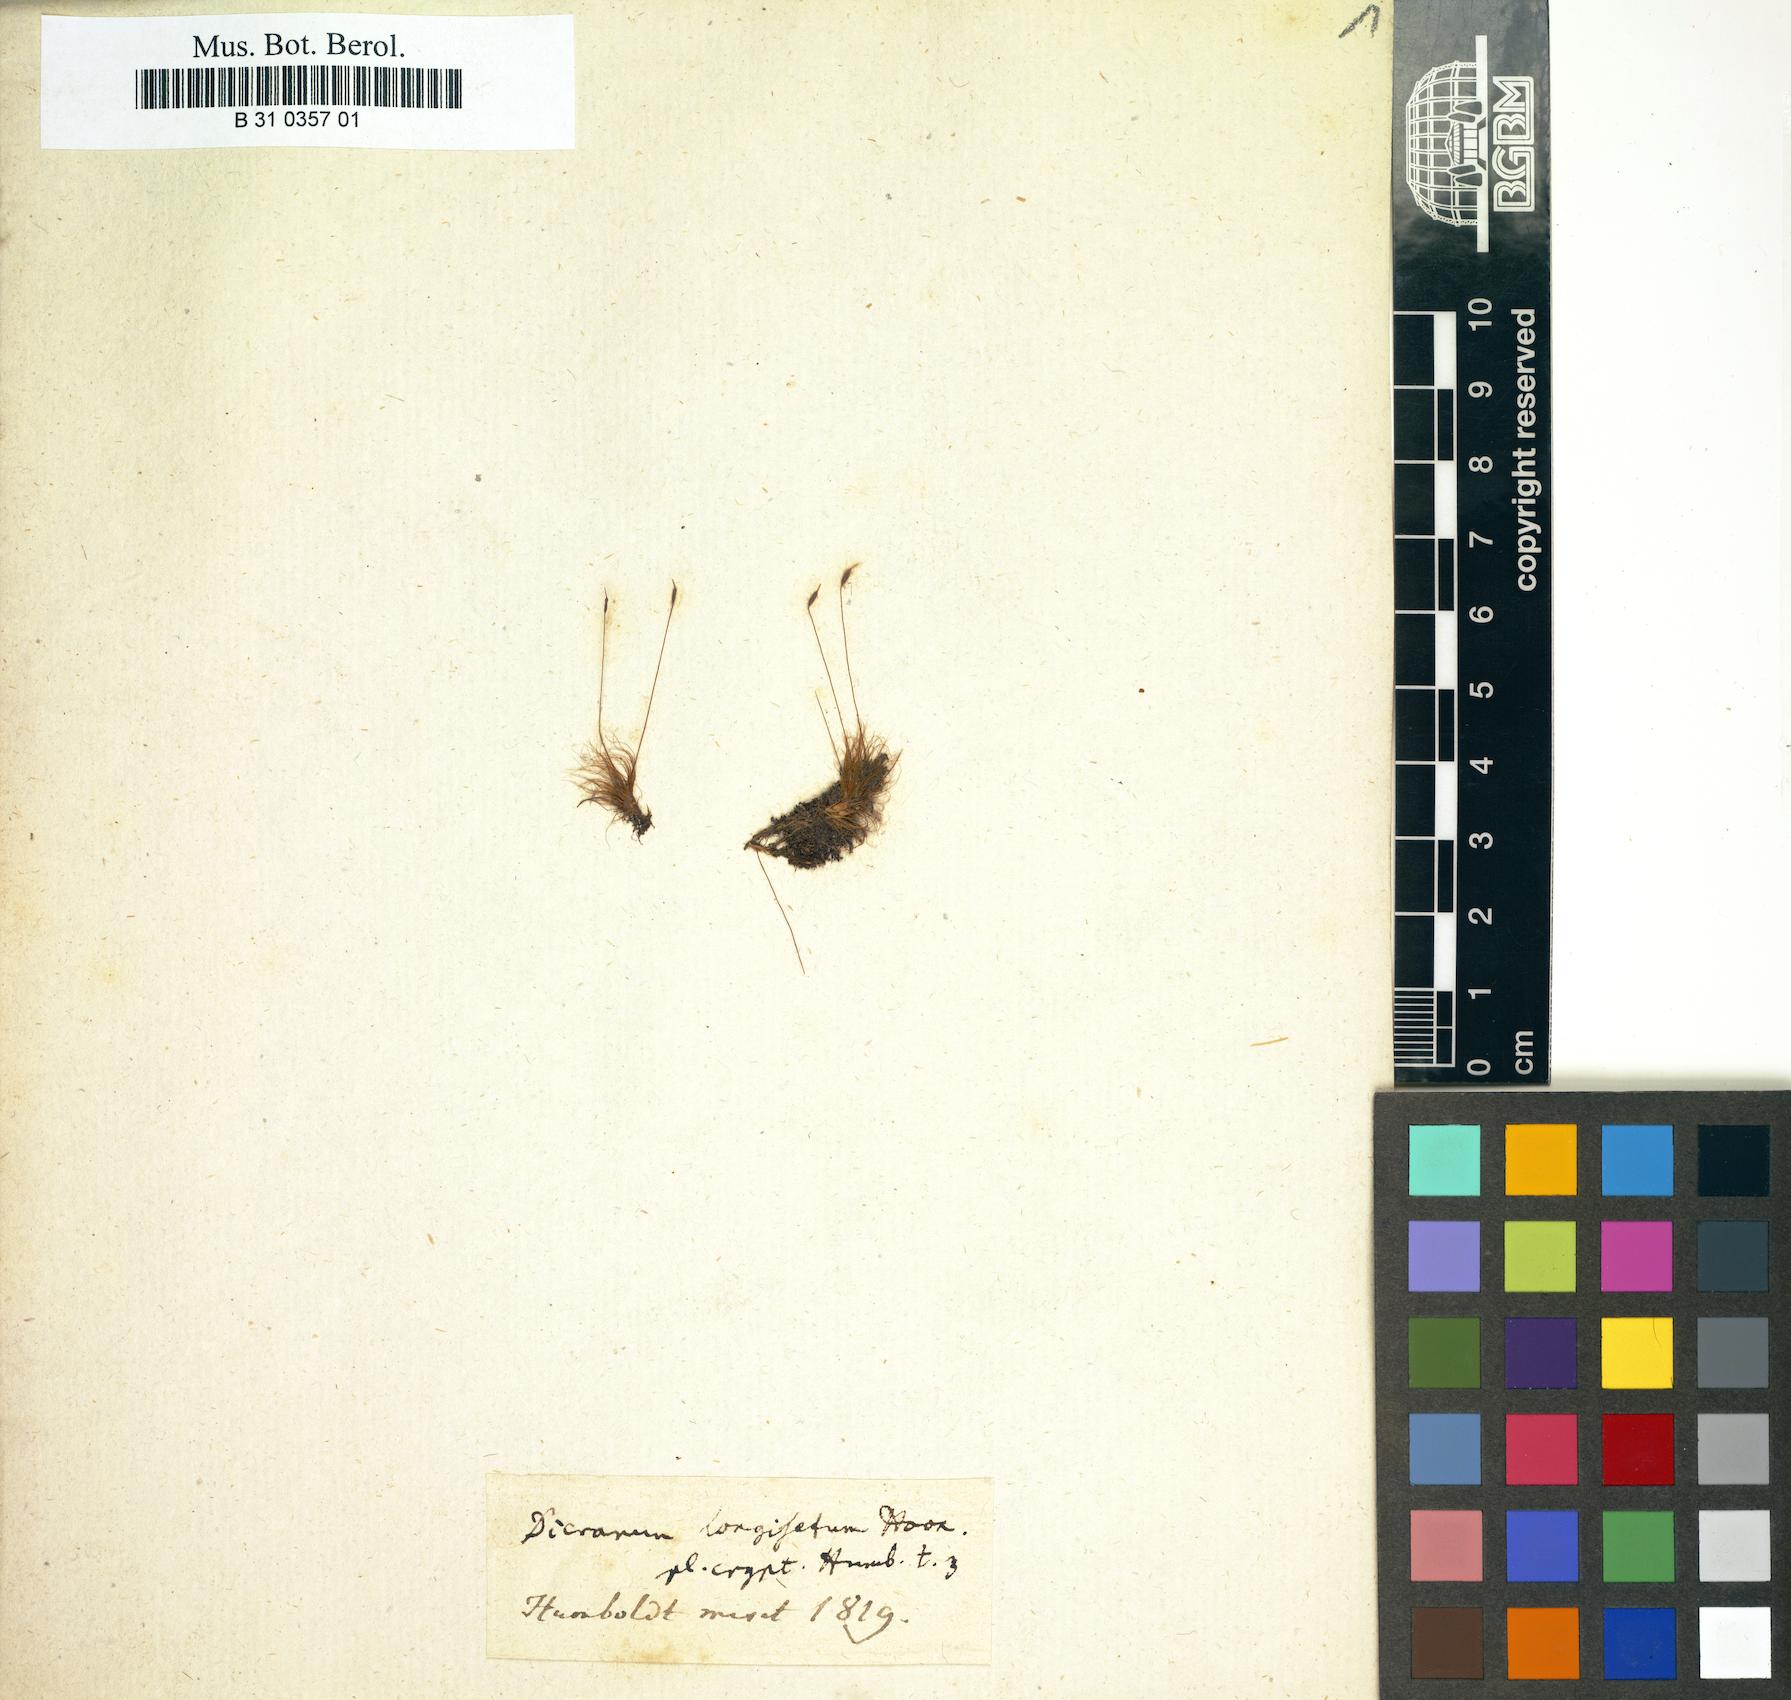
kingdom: Plantae
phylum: Bryophyta
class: Bryopsida
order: Dicranales
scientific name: Dicranales
